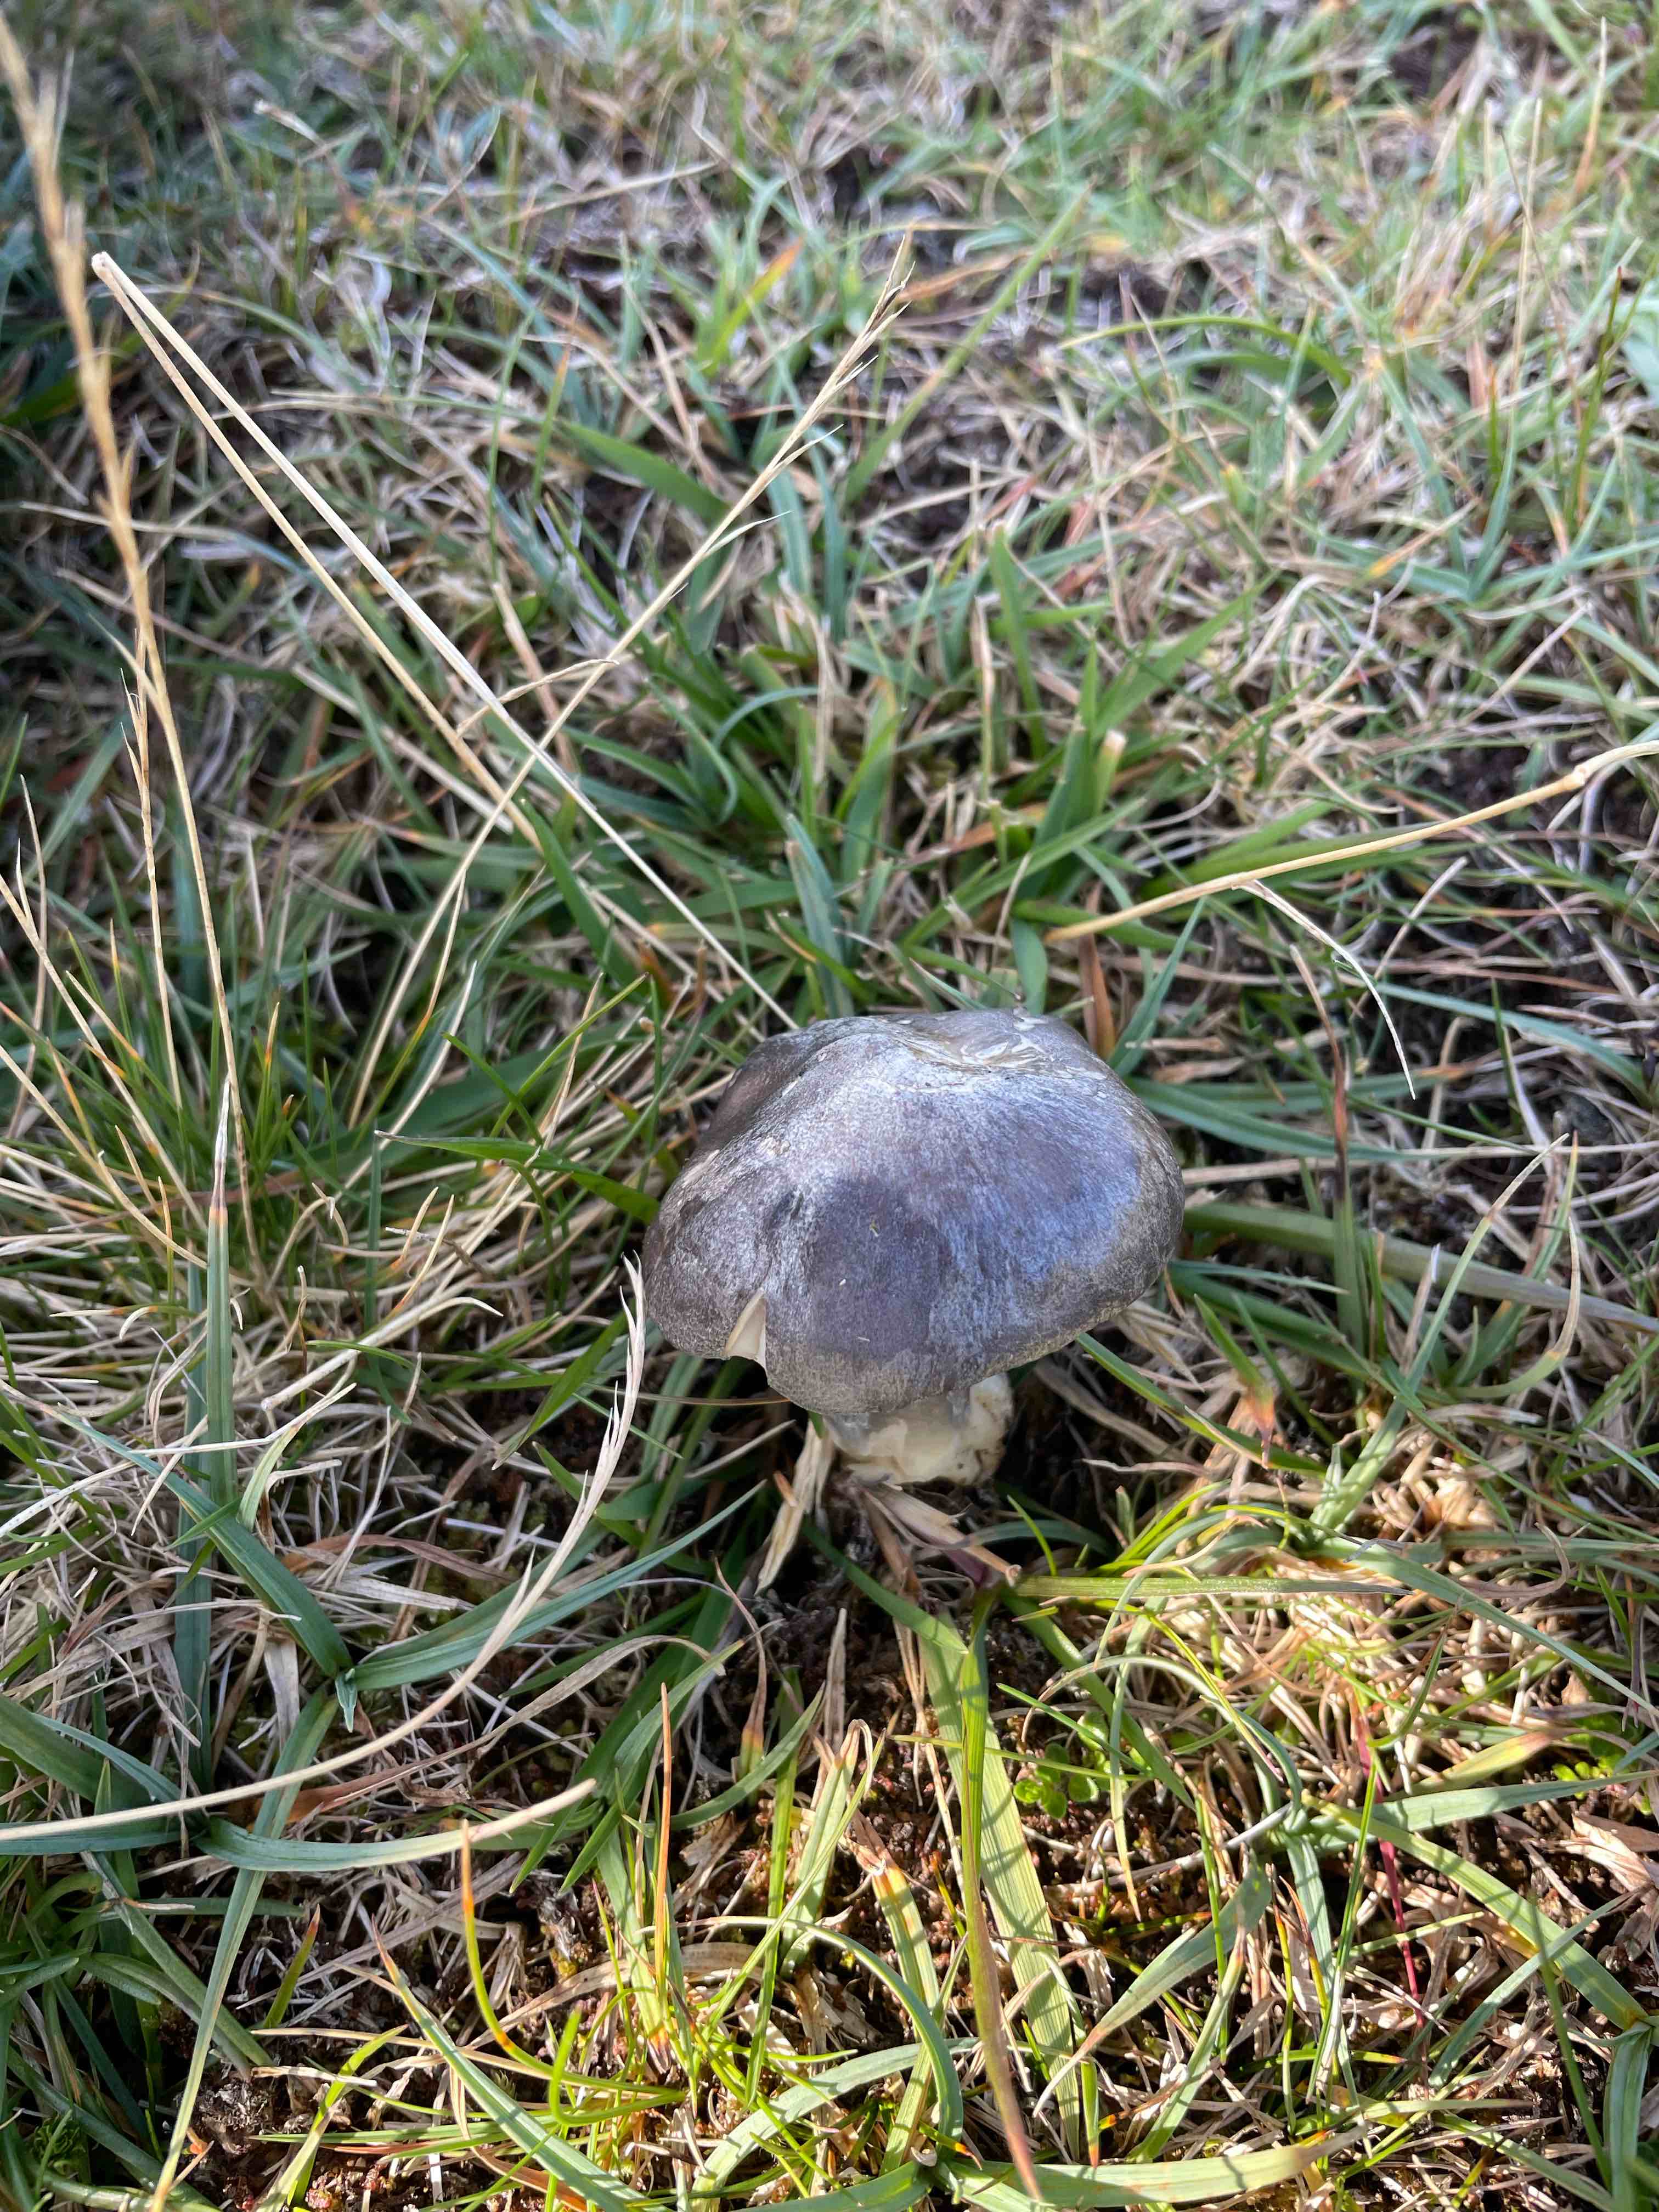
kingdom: Fungi
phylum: Basidiomycota
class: Agaricomycetes
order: Agaricales
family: Entolomataceae
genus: Entoloma
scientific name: Entoloma
